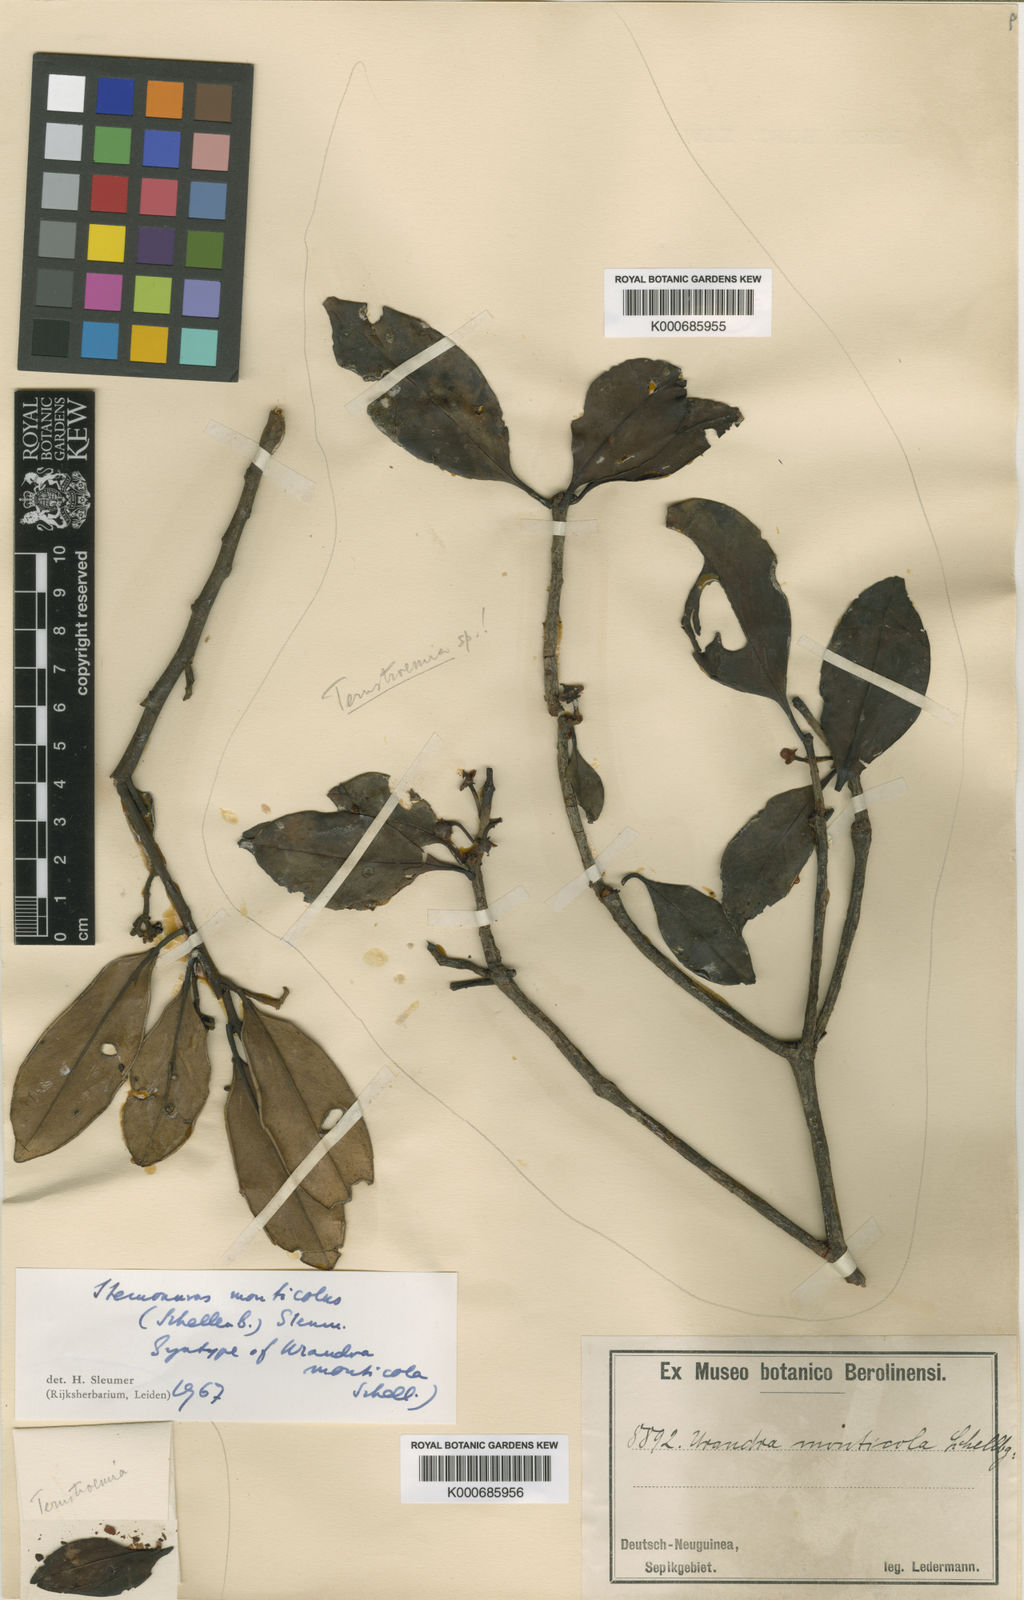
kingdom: Plantae
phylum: Tracheophyta
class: Magnoliopsida
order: Cardiopteridales
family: Stemonuraceae
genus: Stemonurus
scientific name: Stemonurus monticola
